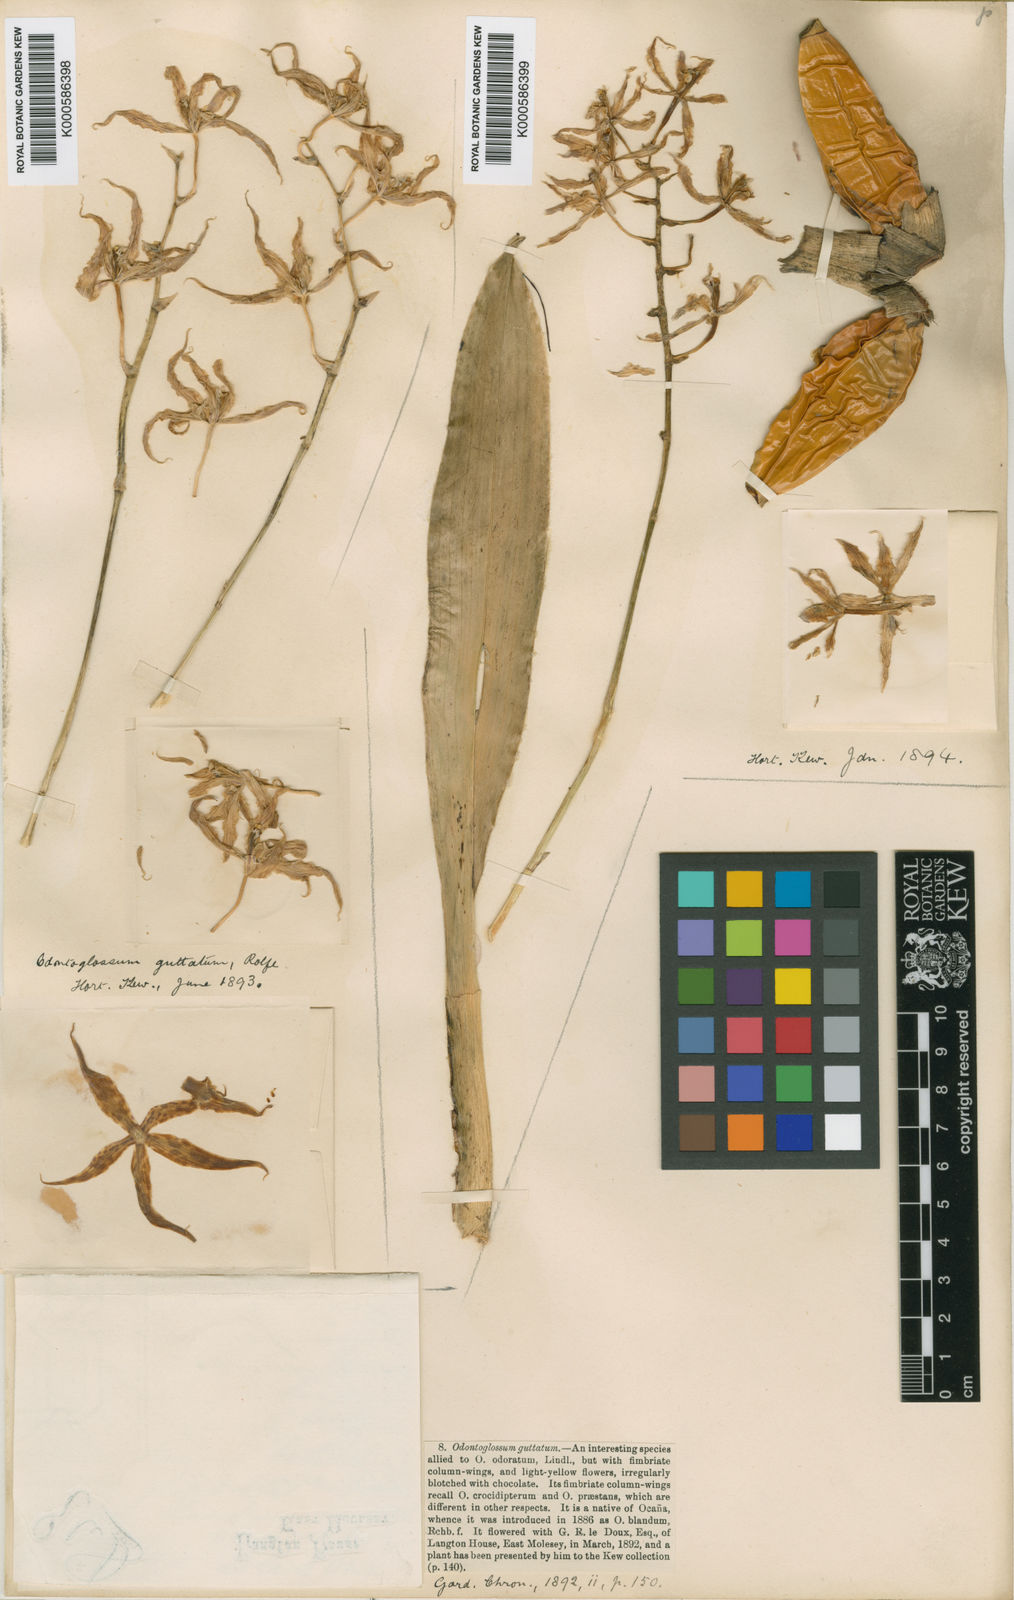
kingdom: Plantae
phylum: Tracheophyta
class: Liliopsida
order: Asparagales
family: Orchidaceae
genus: Oncidium
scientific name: Oncidium leeanum
